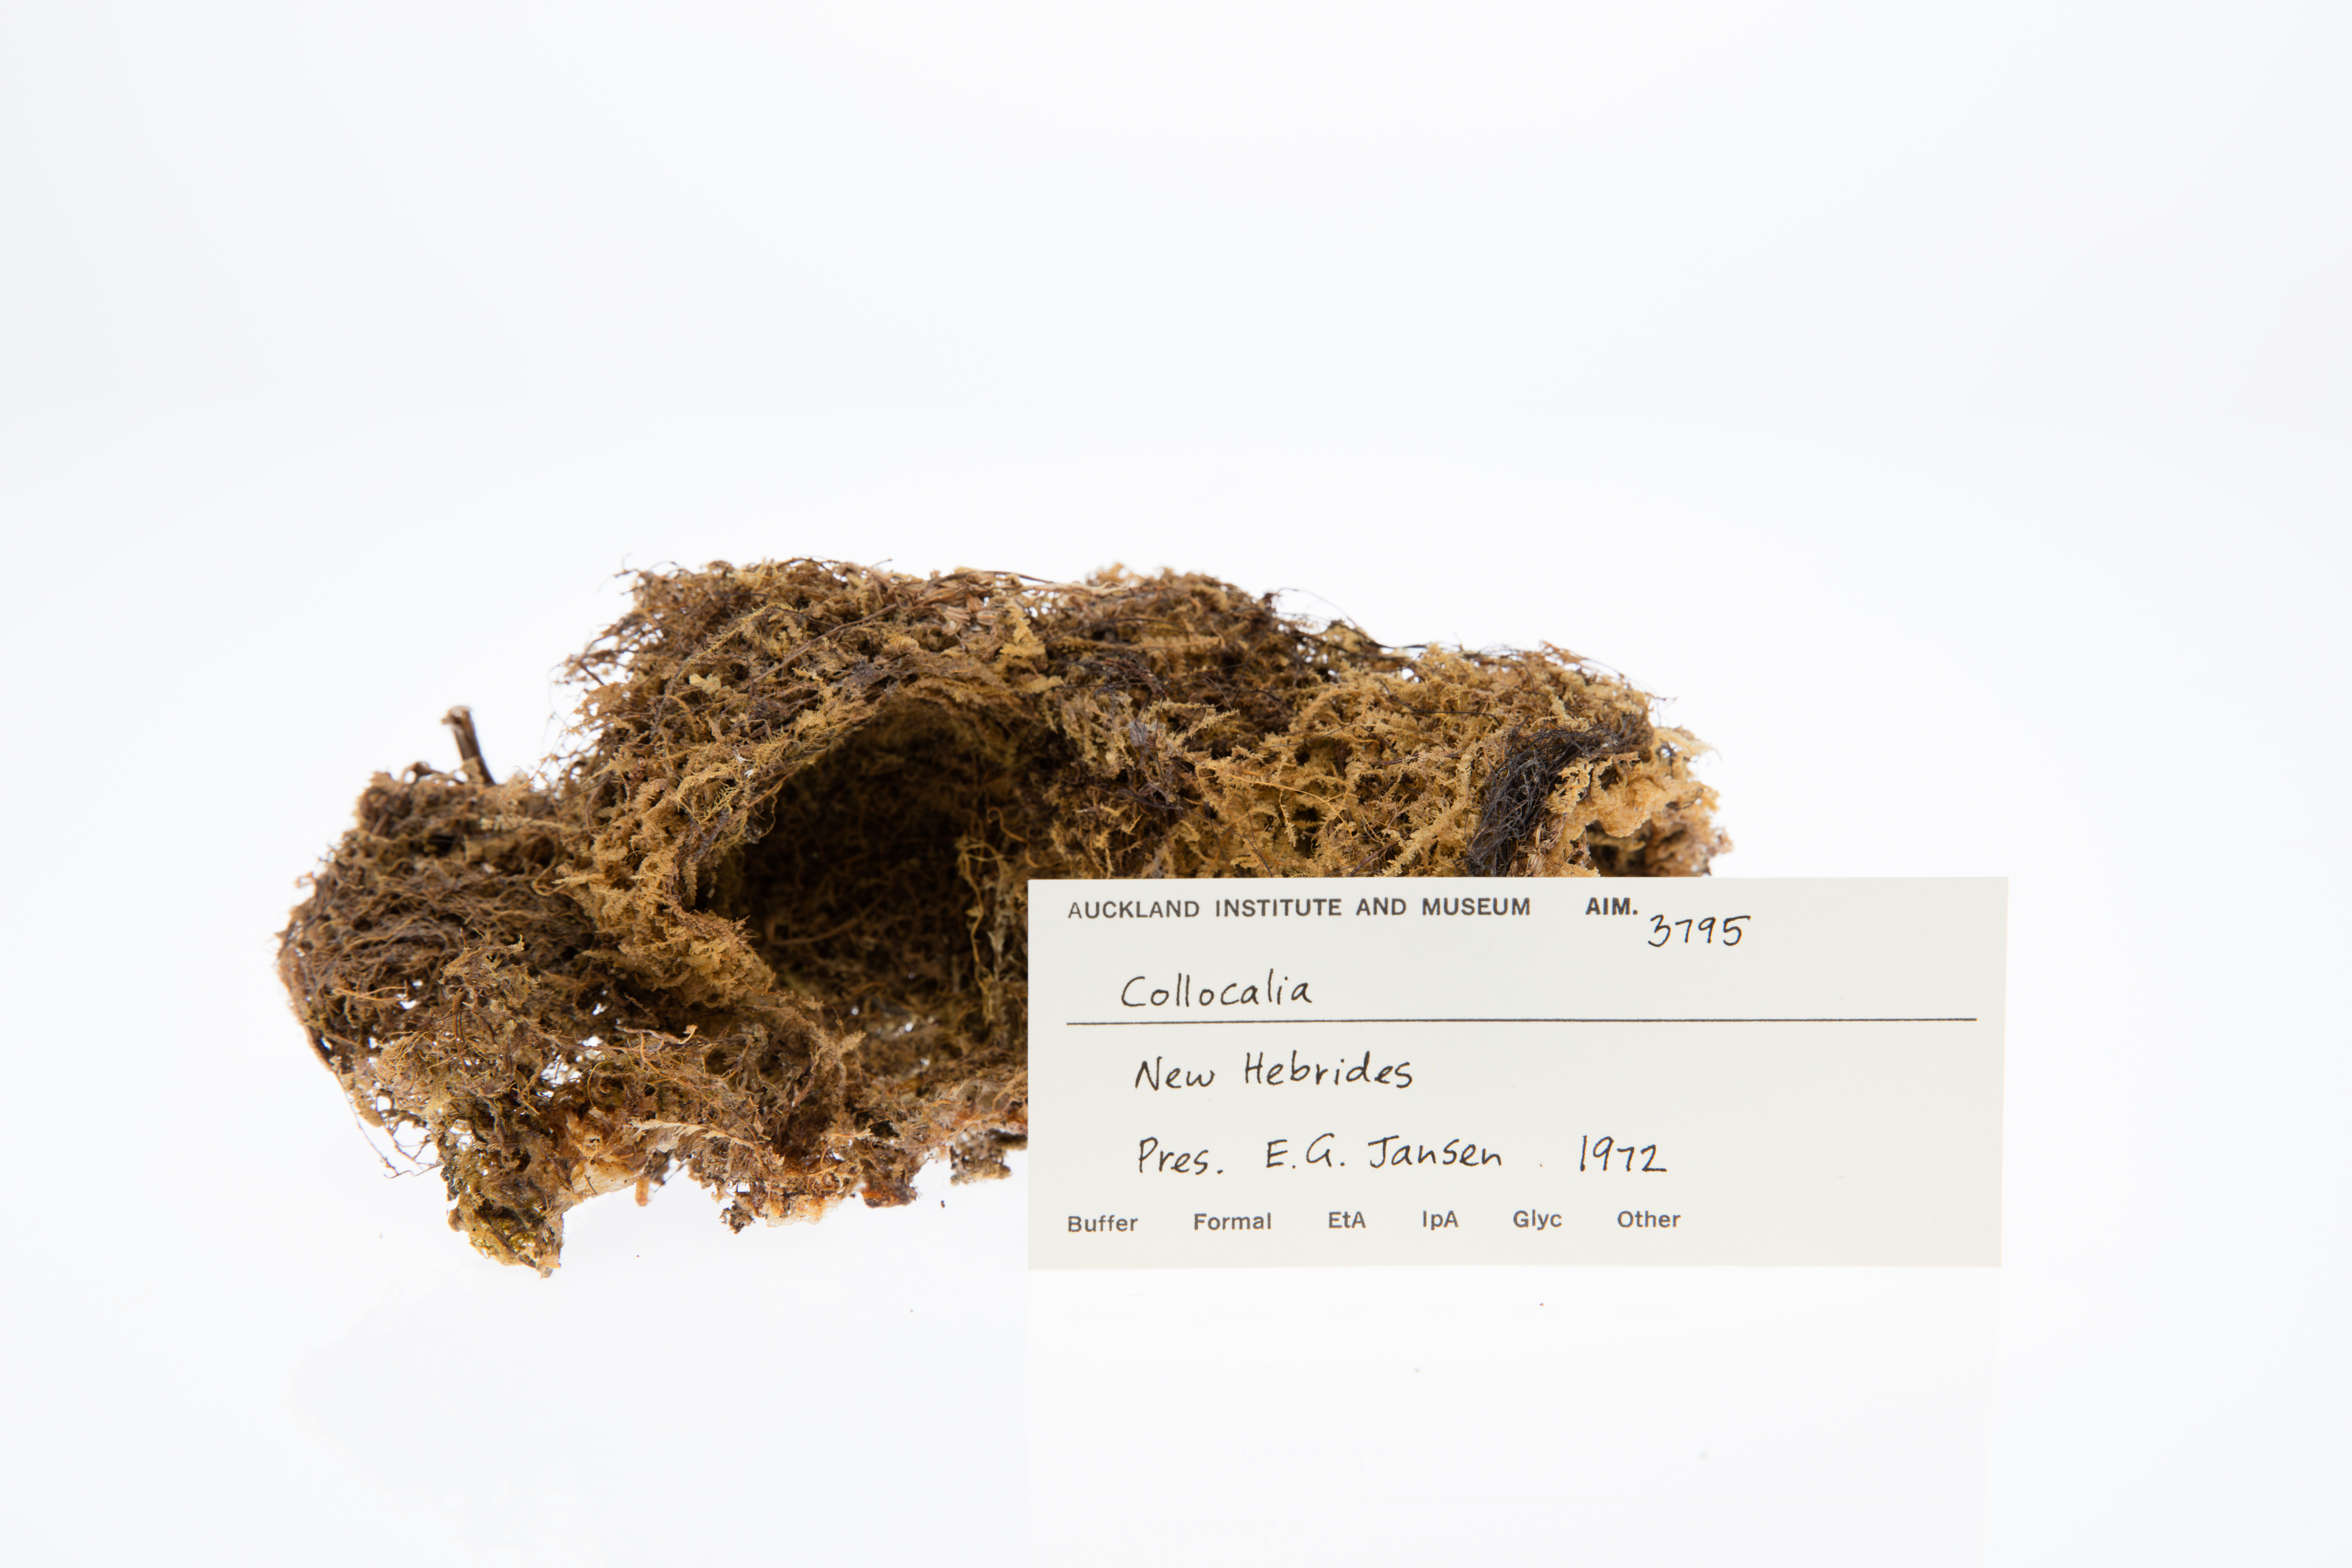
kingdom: Animalia
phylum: Chordata
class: Aves
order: Apodiformes
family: Apodidae
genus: Collocalia
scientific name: Collocalia
